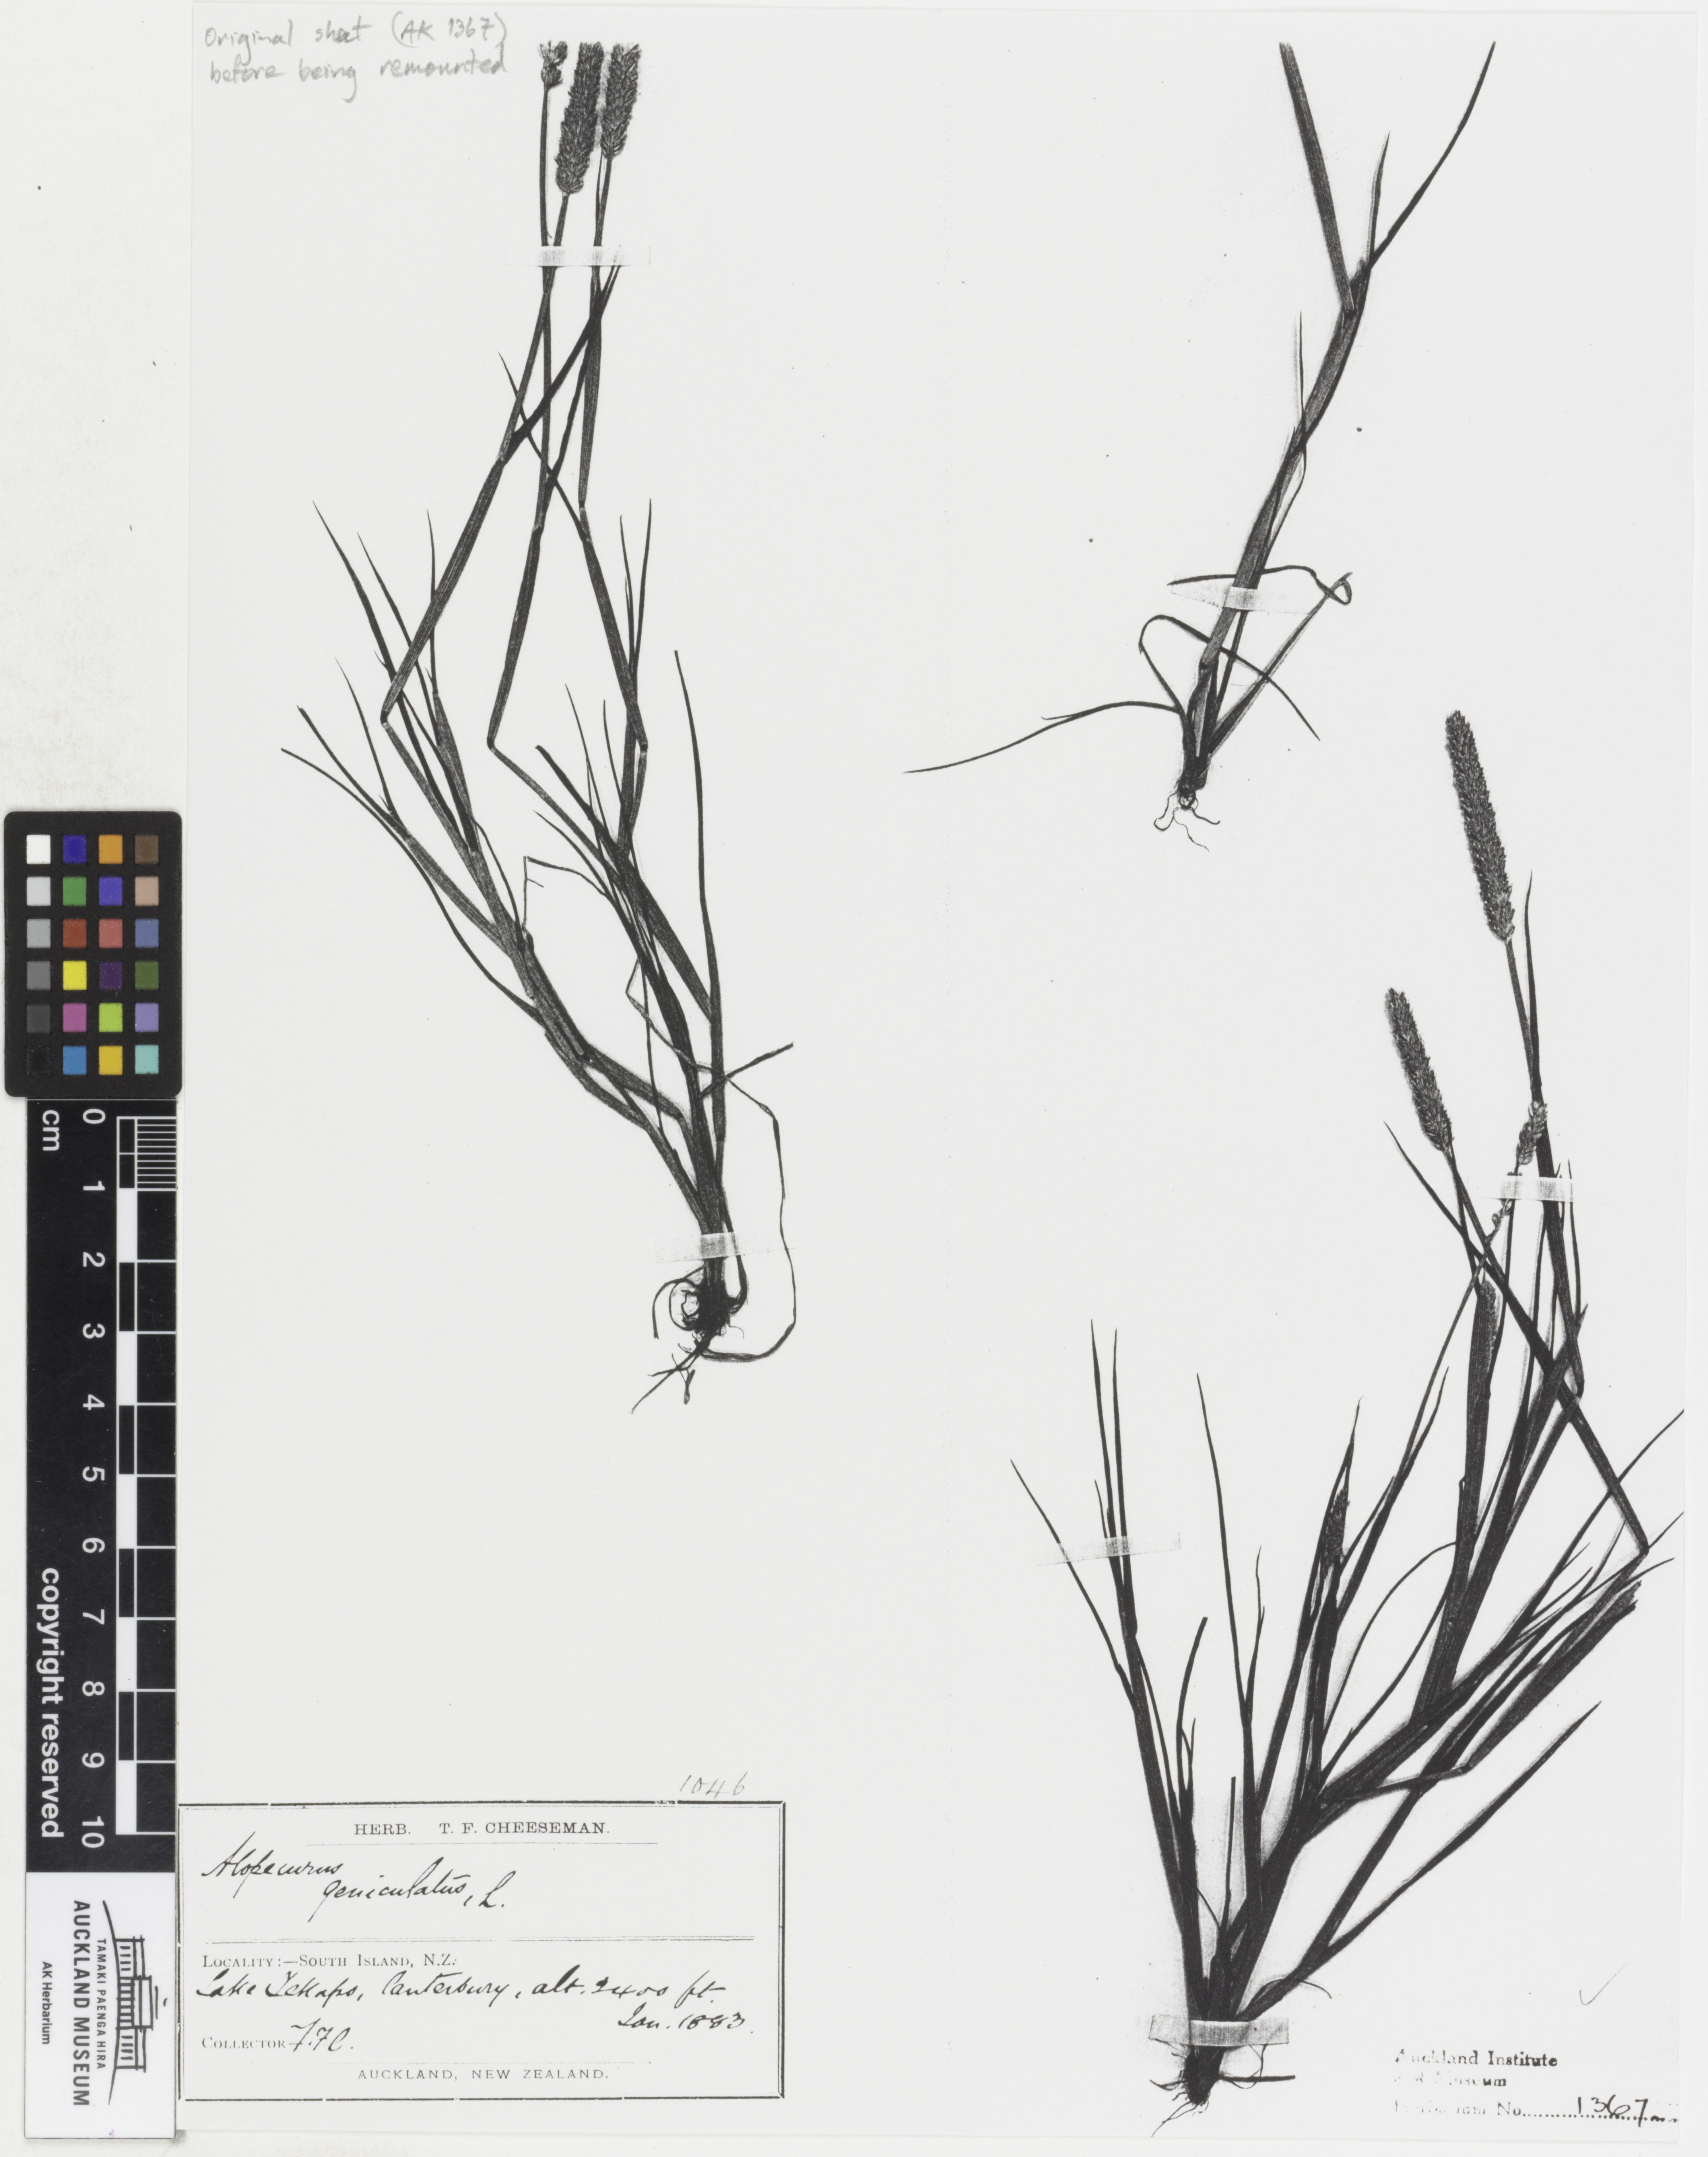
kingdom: Plantae
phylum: Tracheophyta
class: Liliopsida
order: Poales
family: Poaceae
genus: Alopecurus
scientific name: Alopecurus geniculatus
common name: Water foxtail
